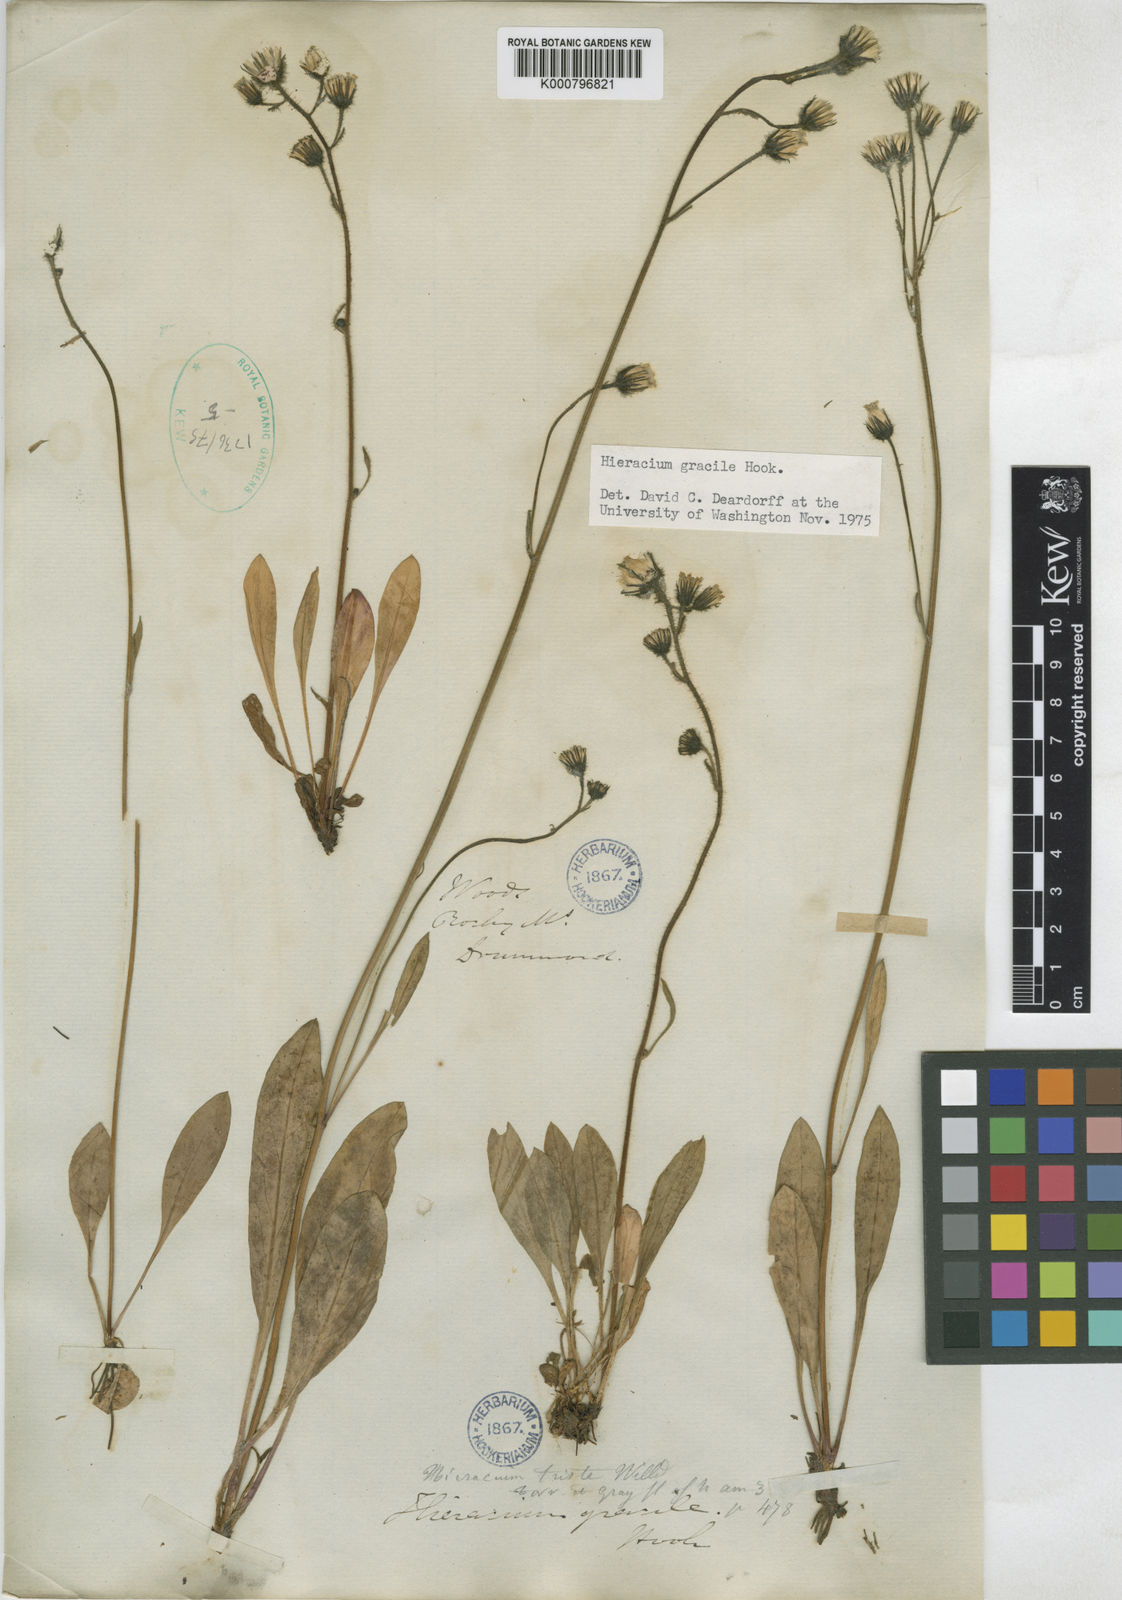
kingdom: Plantae
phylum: Tracheophyta
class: Magnoliopsida
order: Asterales
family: Asteraceae
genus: Hieracium
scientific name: Hieracium triste
